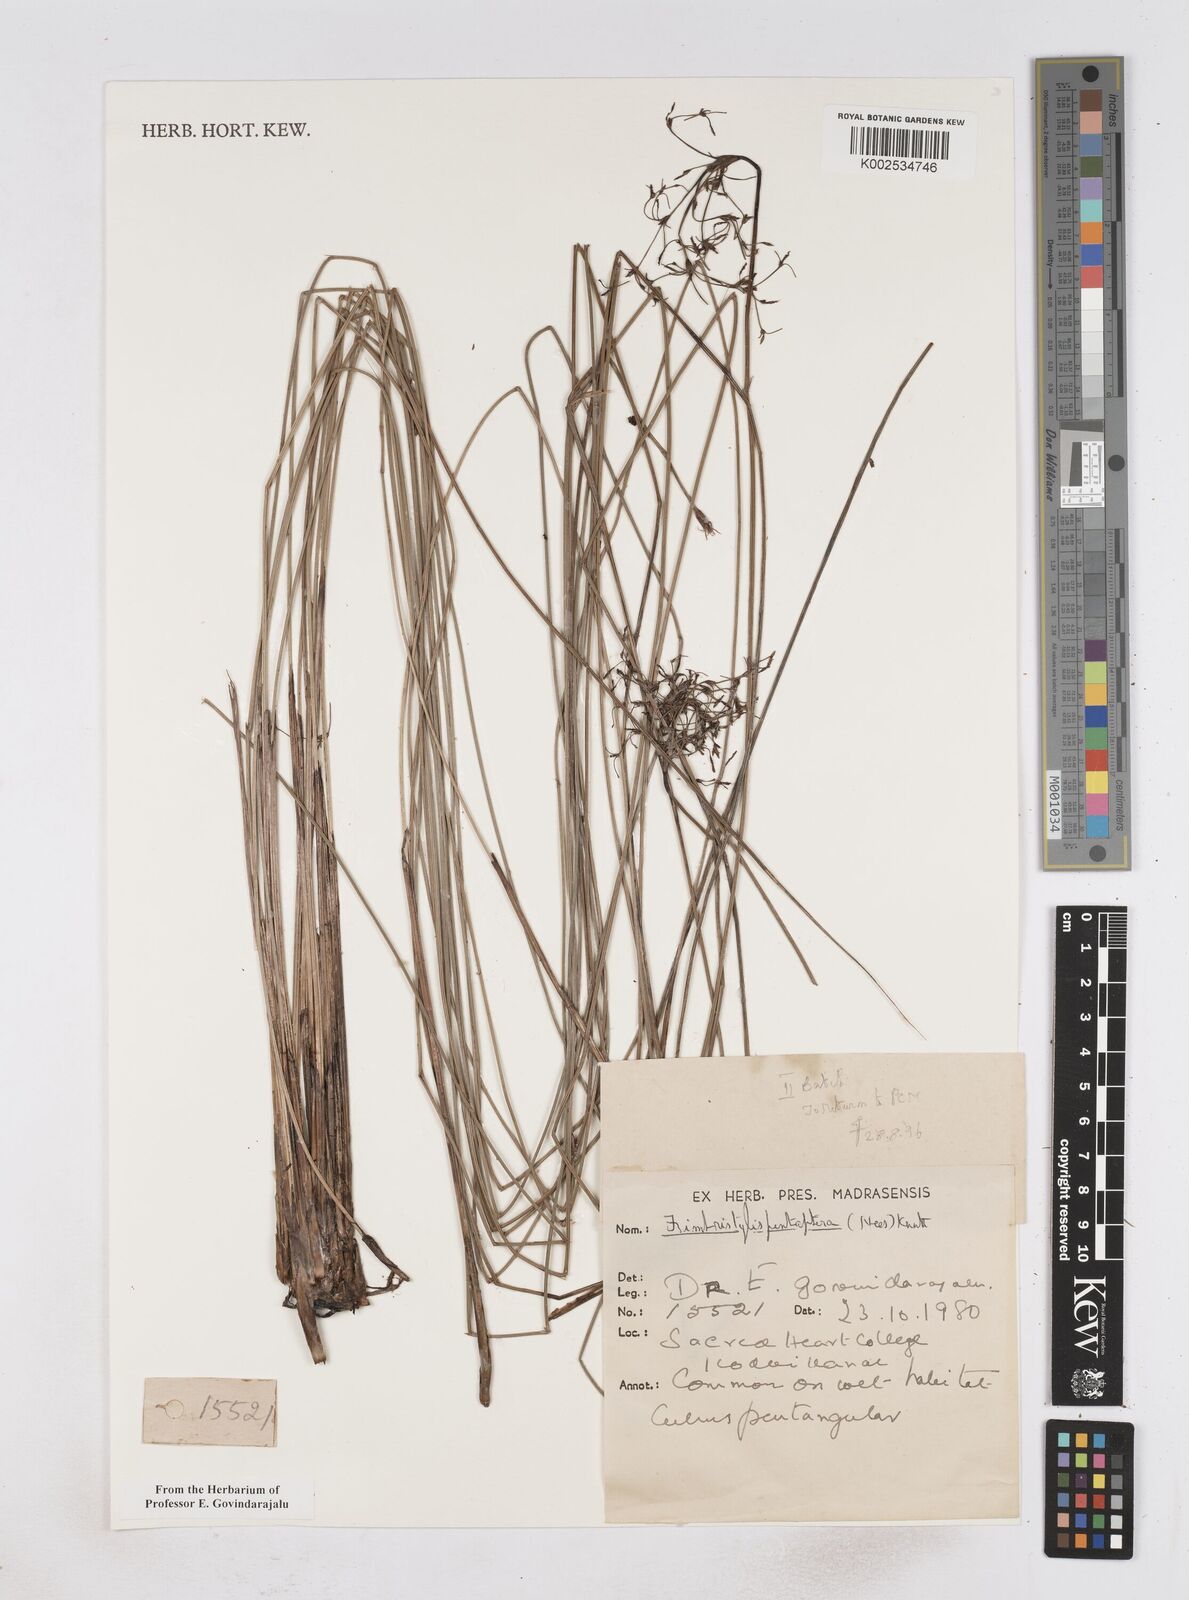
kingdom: Plantae
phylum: Tracheophyta
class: Liliopsida
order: Poales
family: Cyperaceae
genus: Fimbristylis
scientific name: Fimbristylis salbundia
